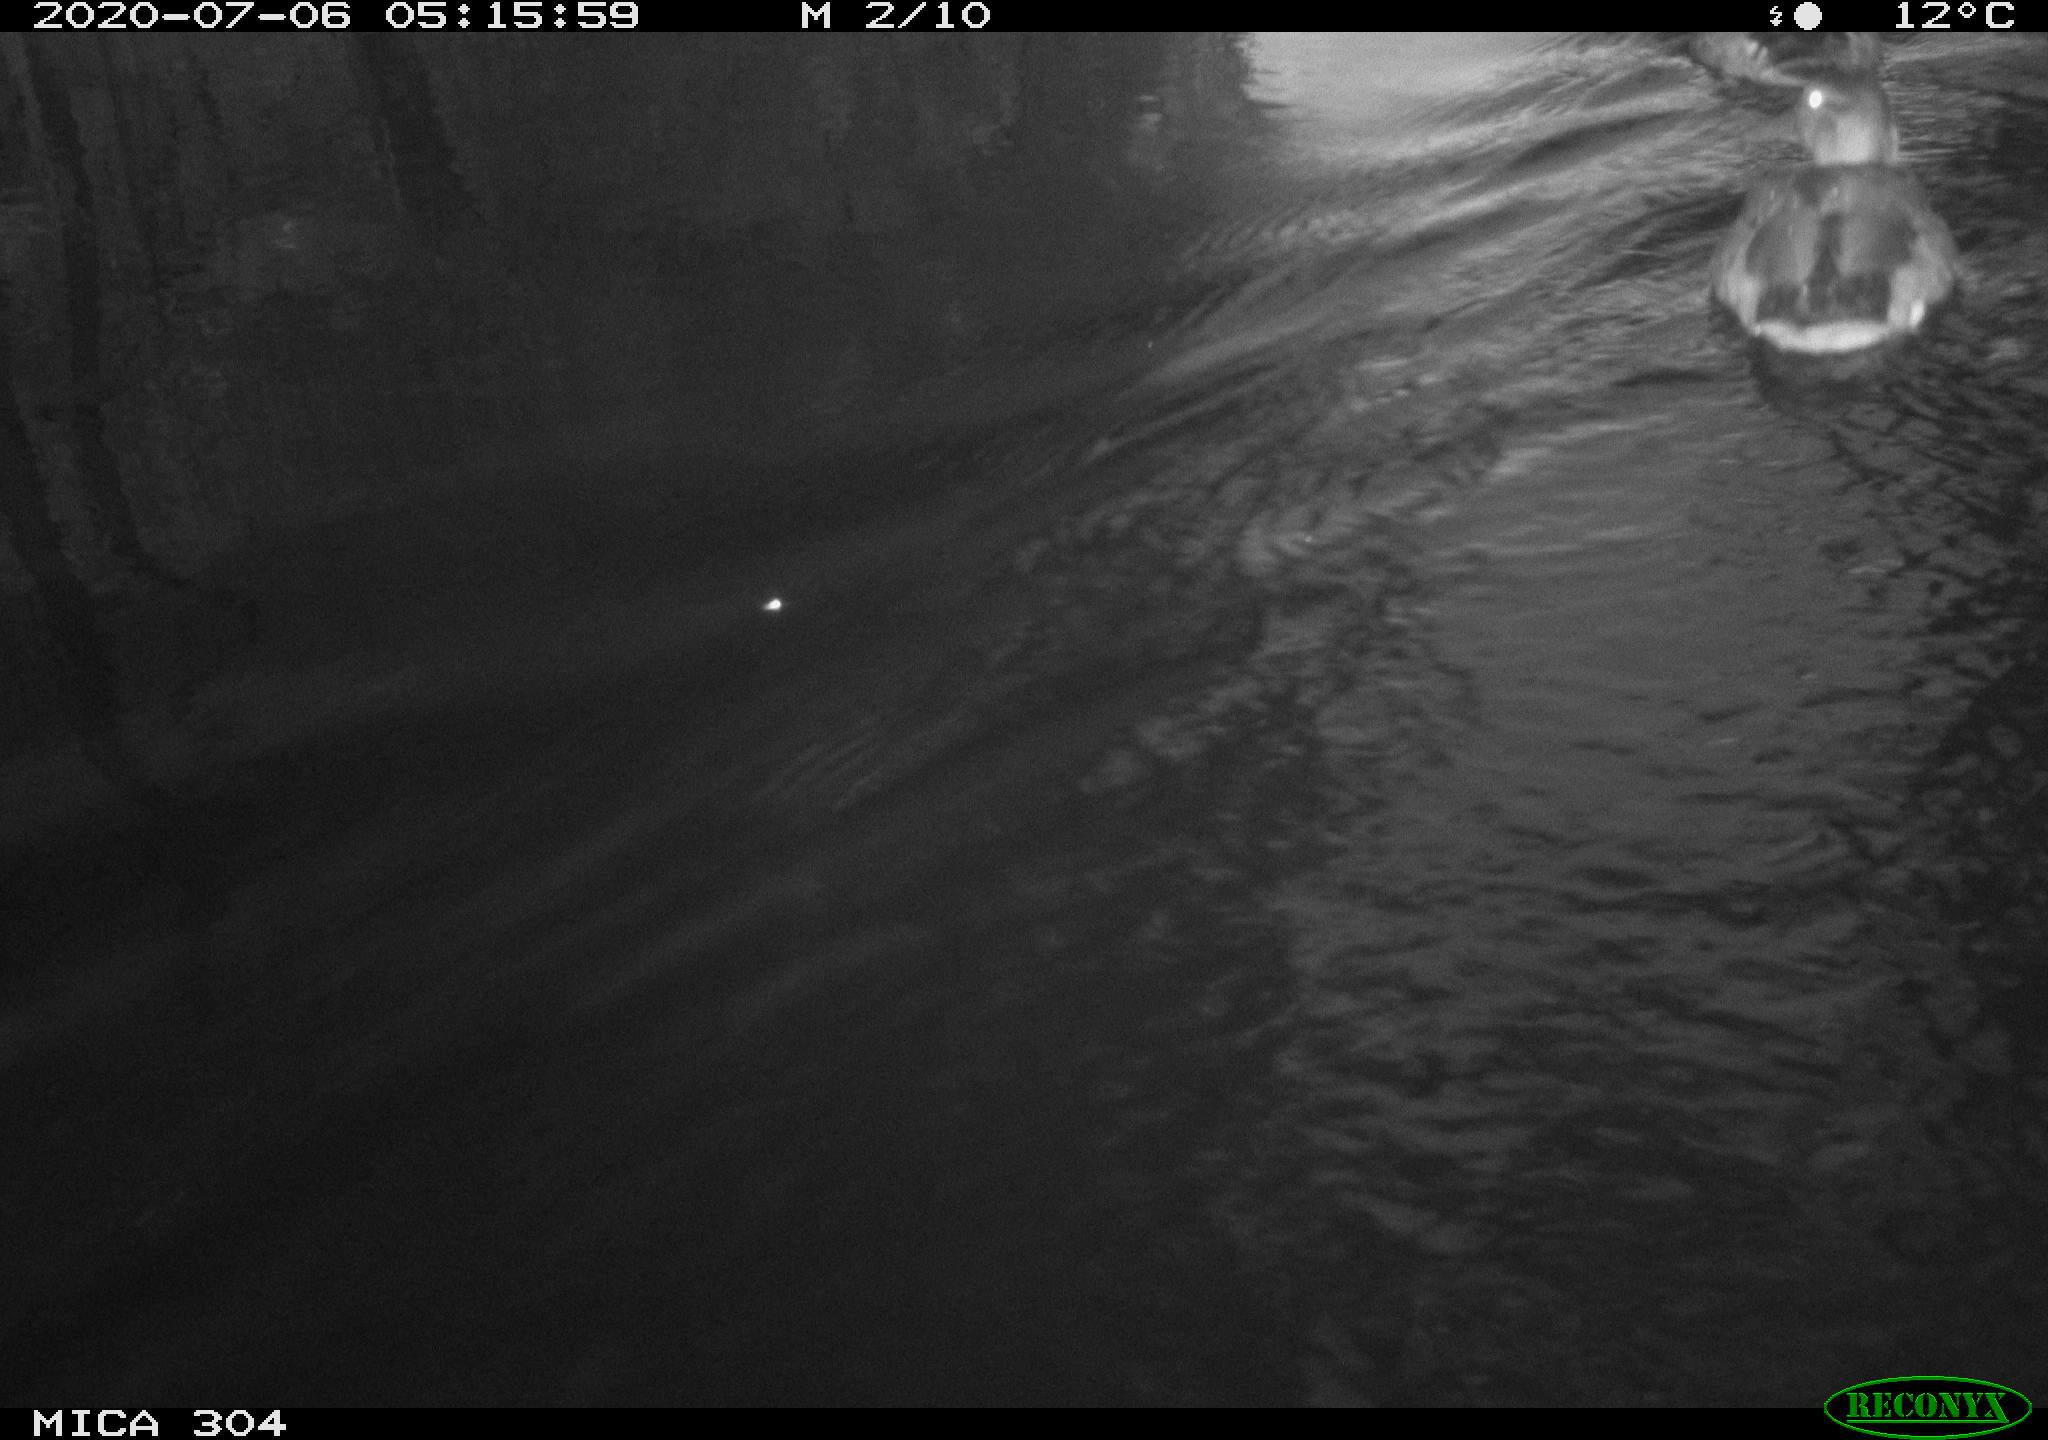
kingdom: Animalia
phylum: Chordata
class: Aves
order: Anseriformes
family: Anatidae
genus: Anas
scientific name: Anas platyrhynchos
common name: Mallard
